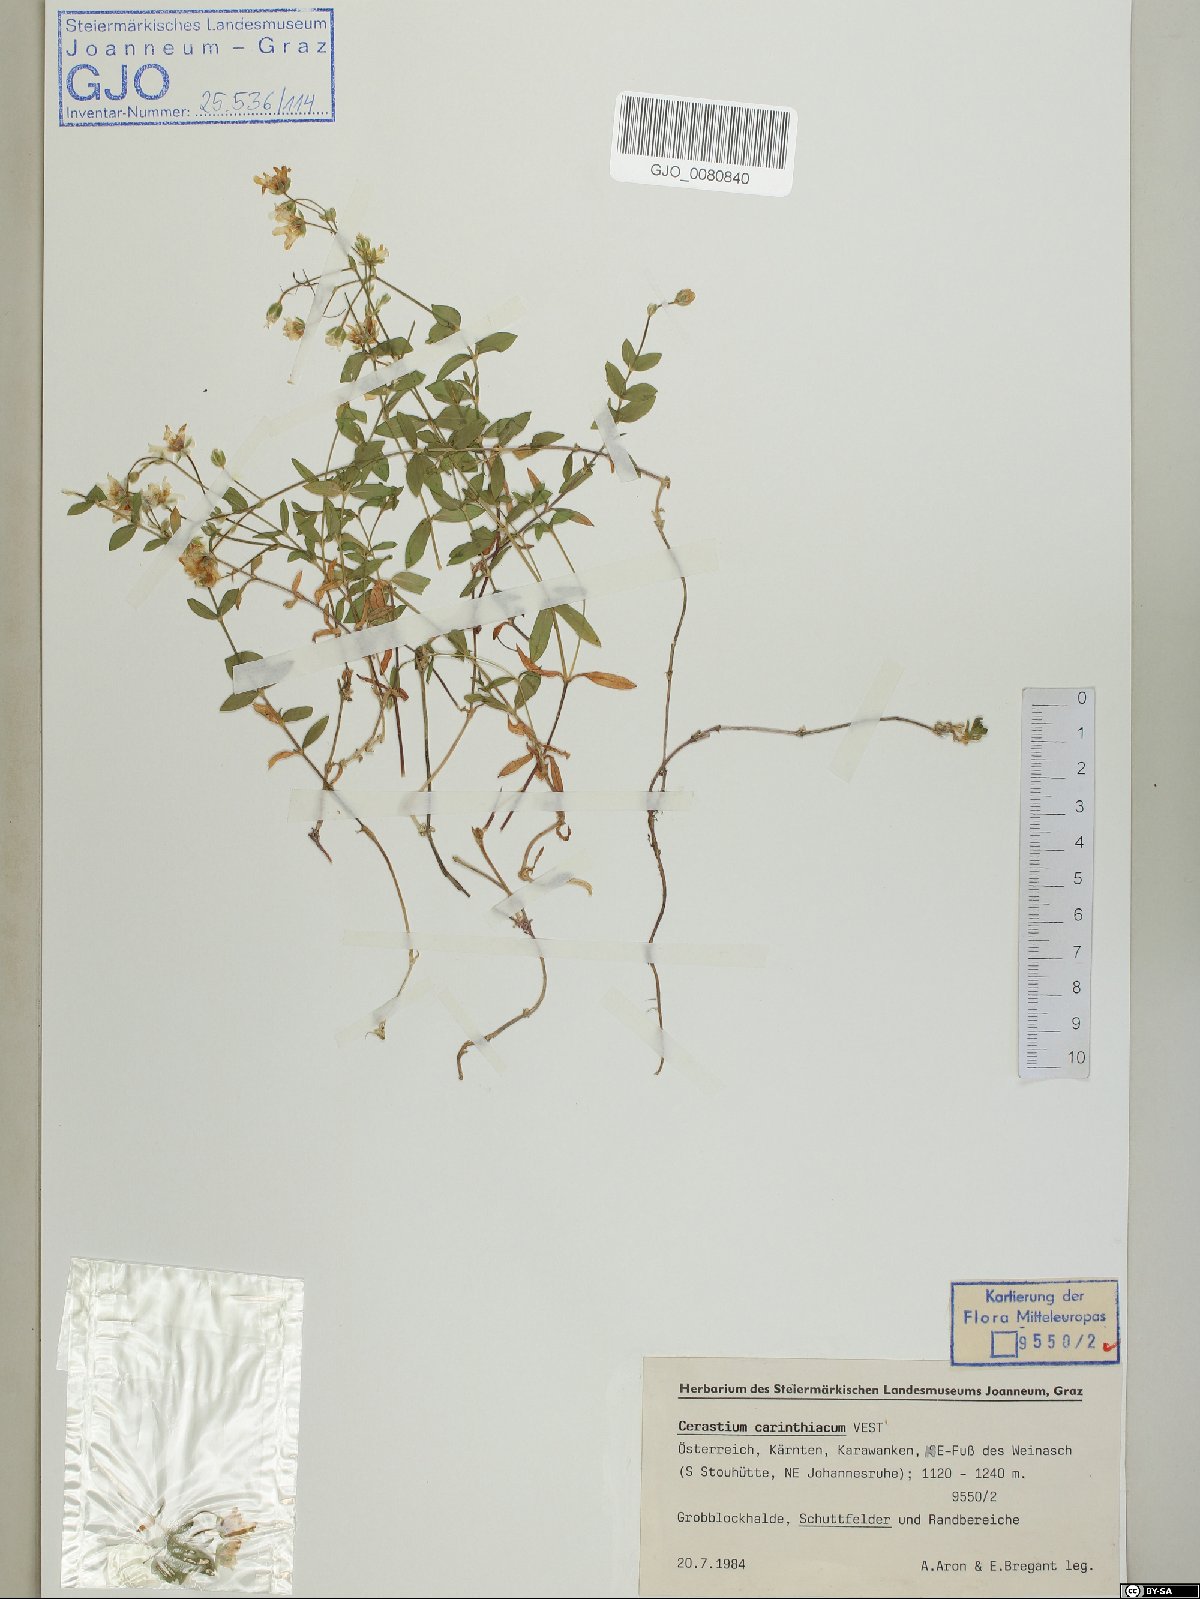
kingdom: Plantae
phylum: Tracheophyta
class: Magnoliopsida
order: Caryophyllales
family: Caryophyllaceae
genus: Cerastium
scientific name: Cerastium carinthiacum
